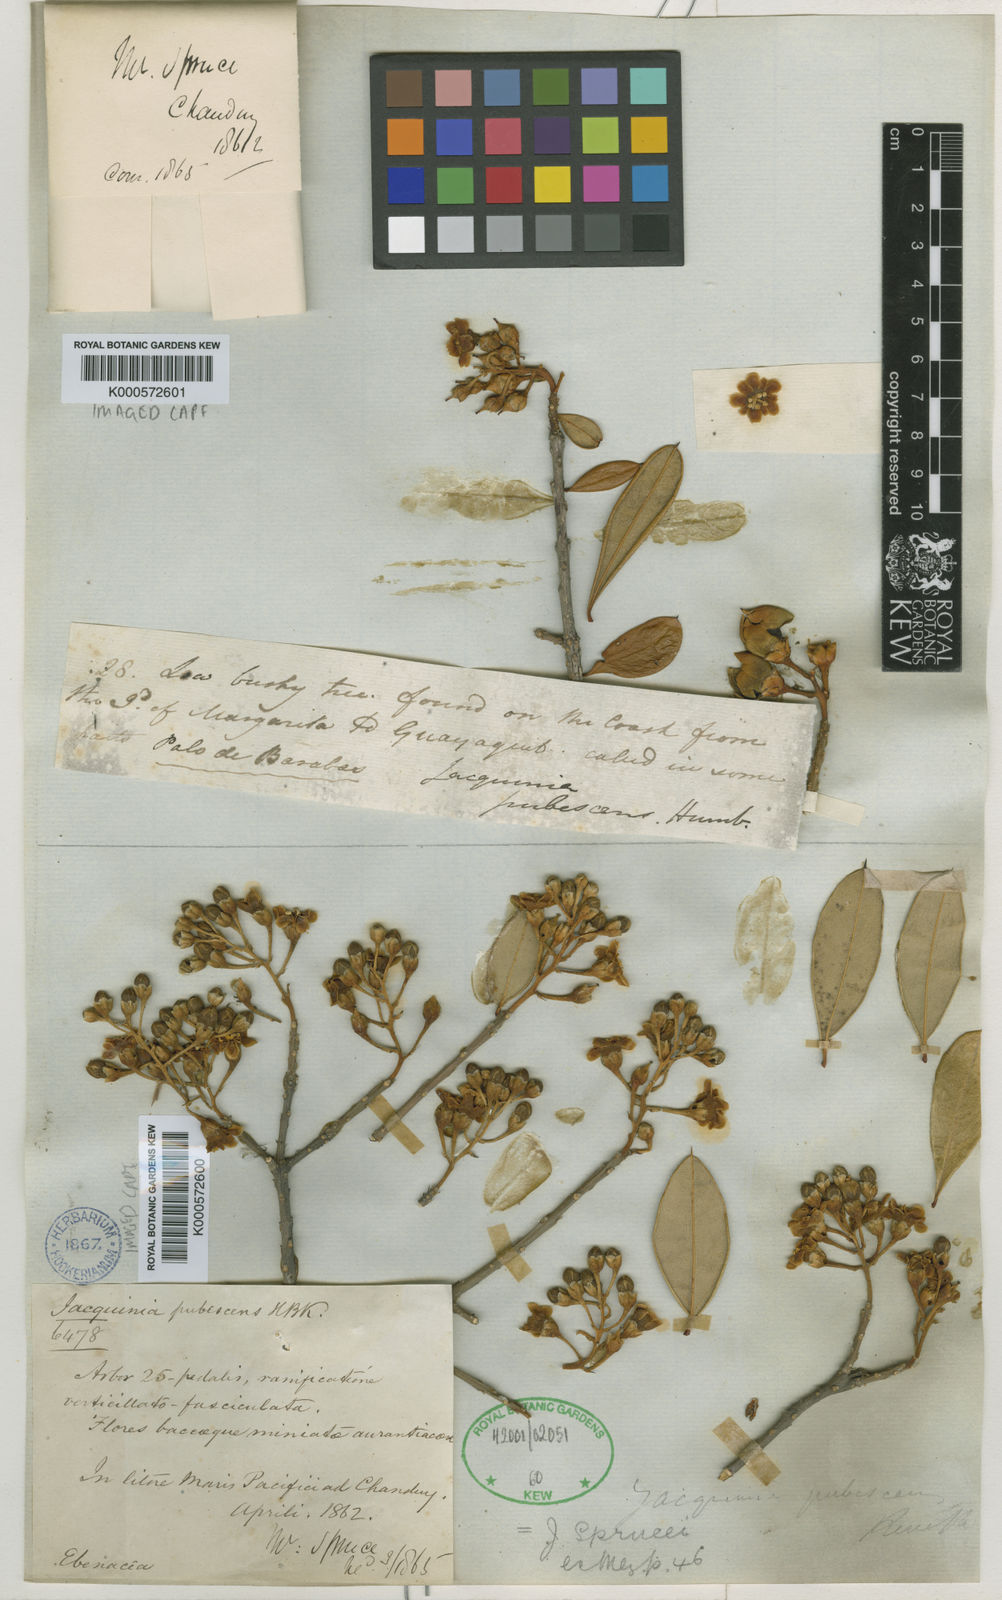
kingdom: Plantae
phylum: Tracheophyta
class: Magnoliopsida
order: Ericales
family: Primulaceae
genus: Bonellia
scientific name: Bonellia sprucei
